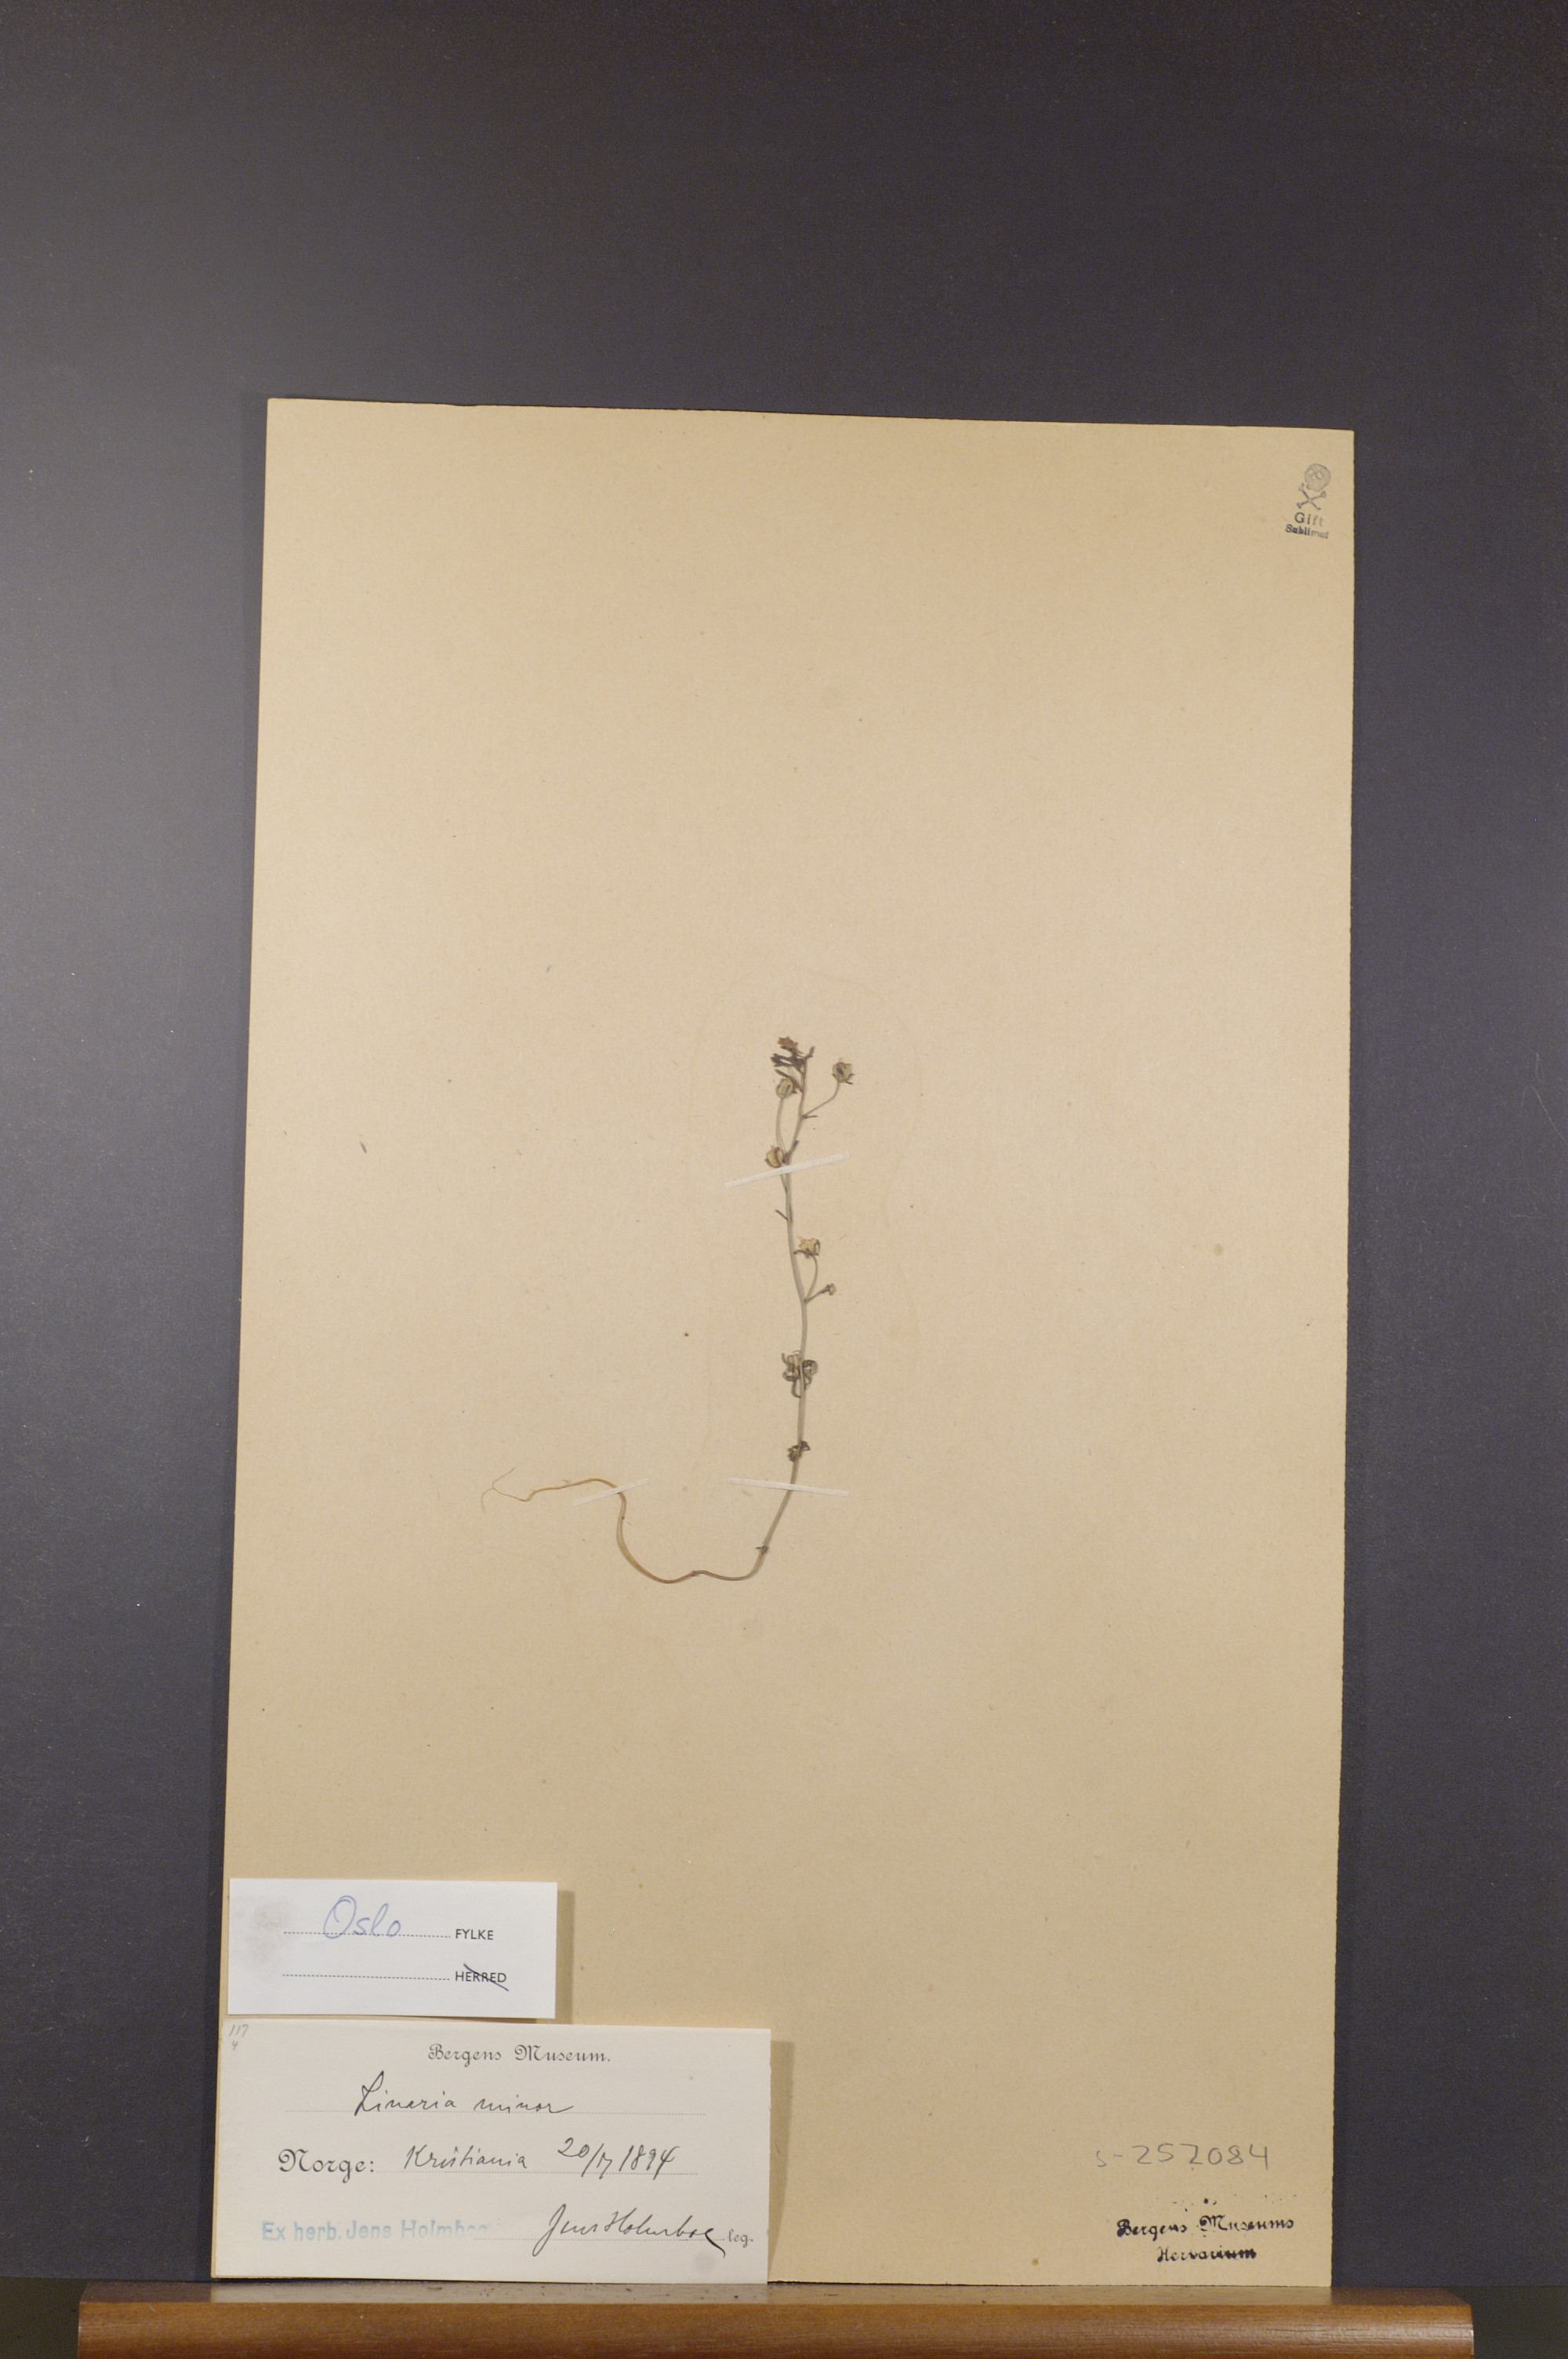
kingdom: Plantae
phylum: Tracheophyta
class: Magnoliopsida
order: Lamiales
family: Plantaginaceae
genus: Chaenorhinum
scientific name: Chaenorhinum minus
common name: Dwarf snapdragon
